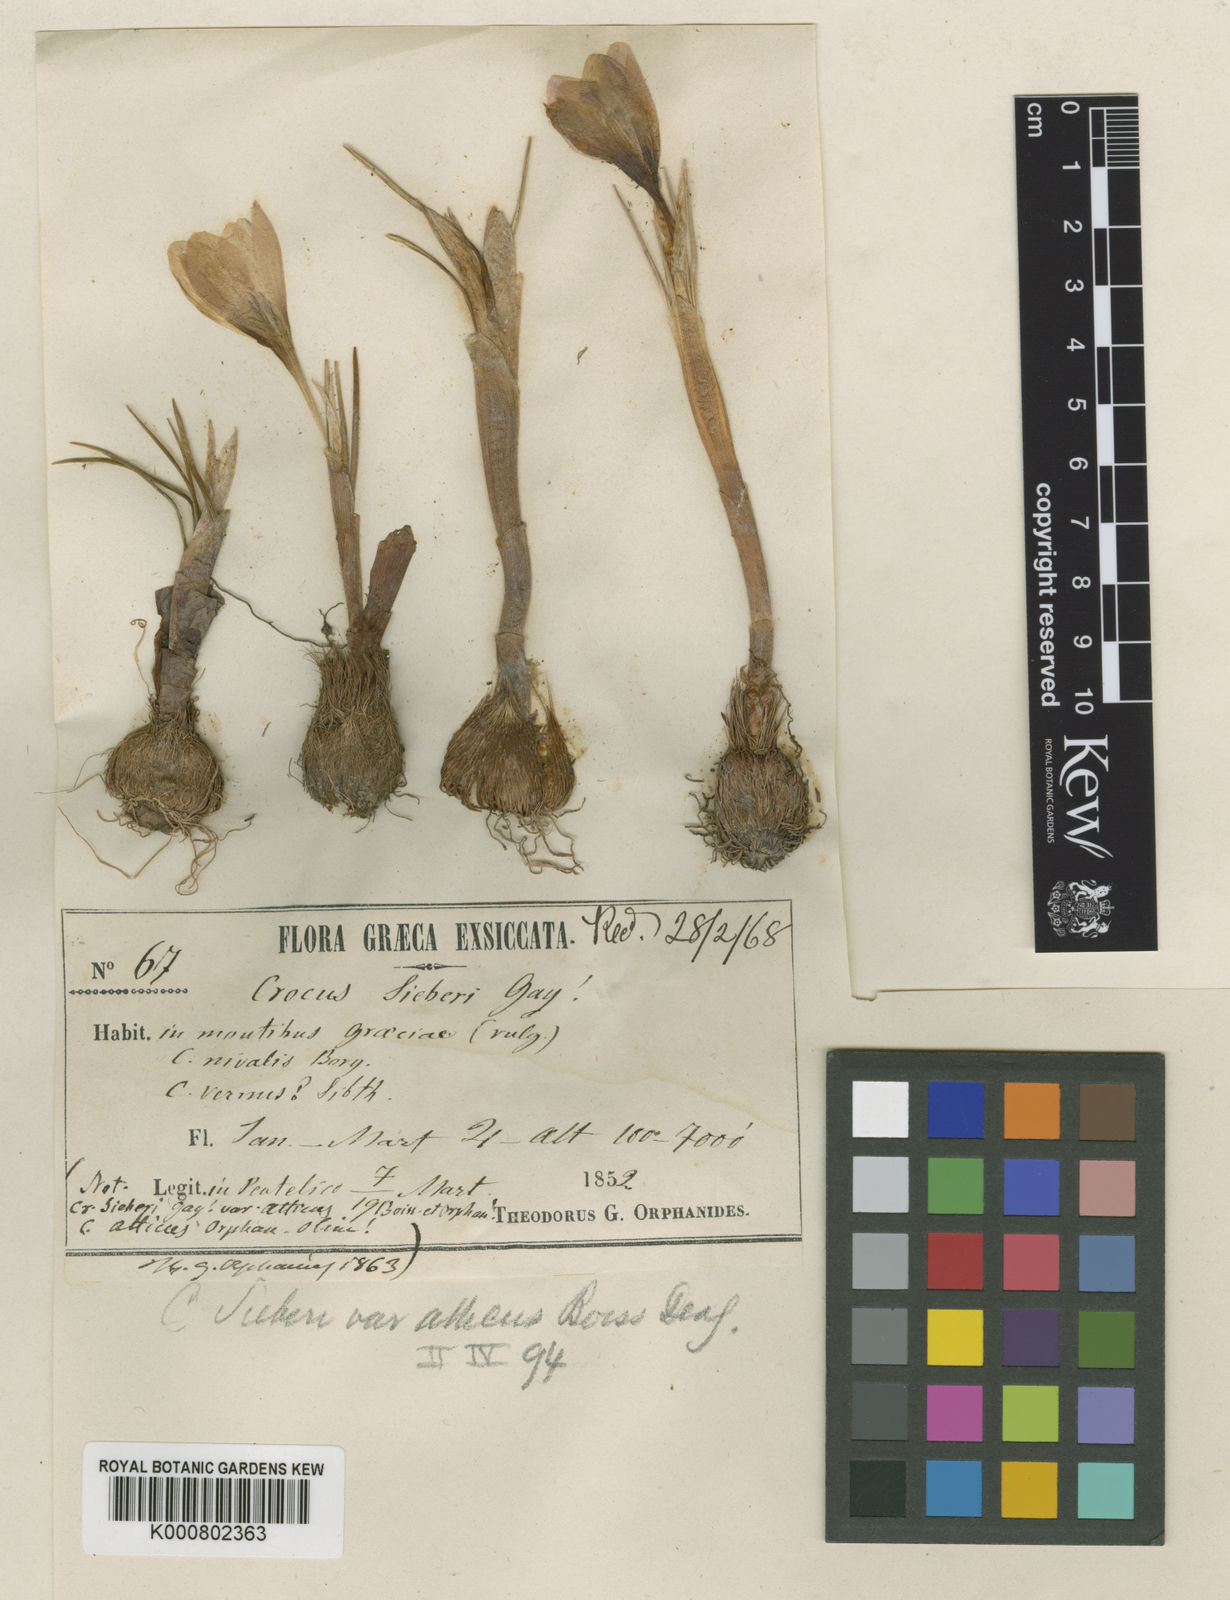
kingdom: Plantae
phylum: Tracheophyta
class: Liliopsida
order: Asparagales
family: Iridaceae
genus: Crocus
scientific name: Crocus atticus
